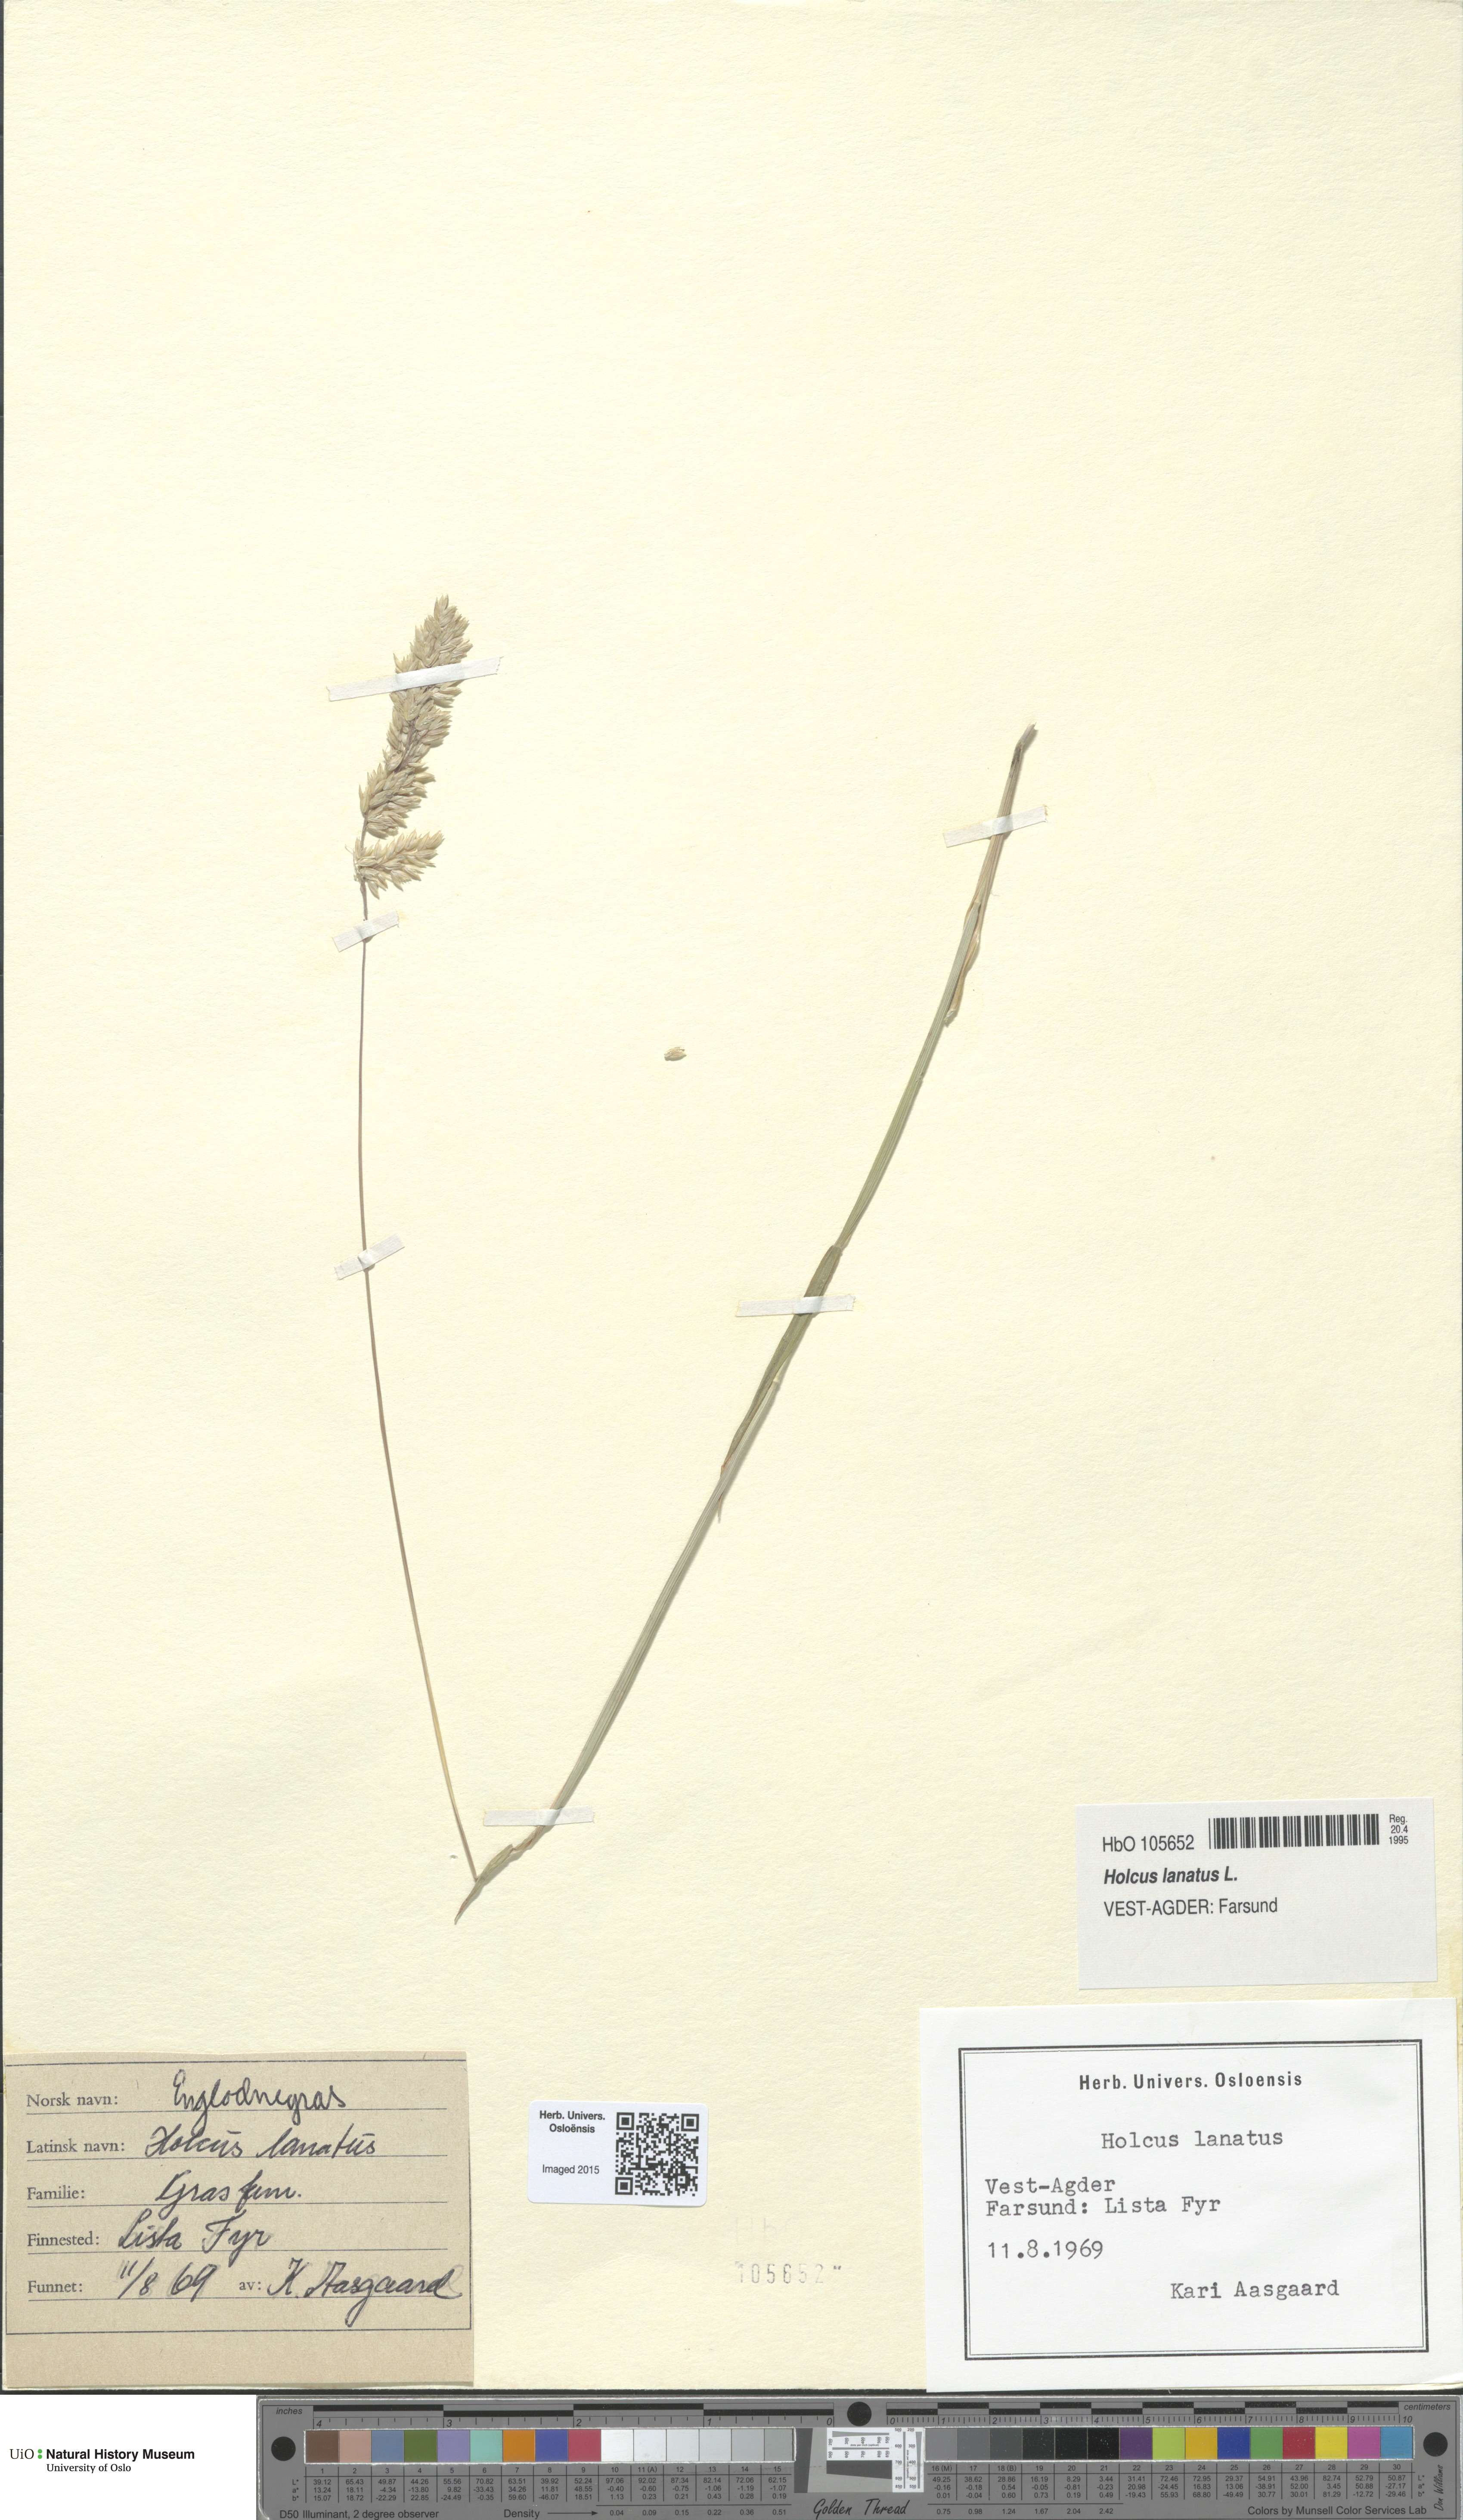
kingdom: Plantae
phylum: Tracheophyta
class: Liliopsida
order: Poales
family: Poaceae
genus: Holcus
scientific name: Holcus lanatus
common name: Yorkshire-fog
